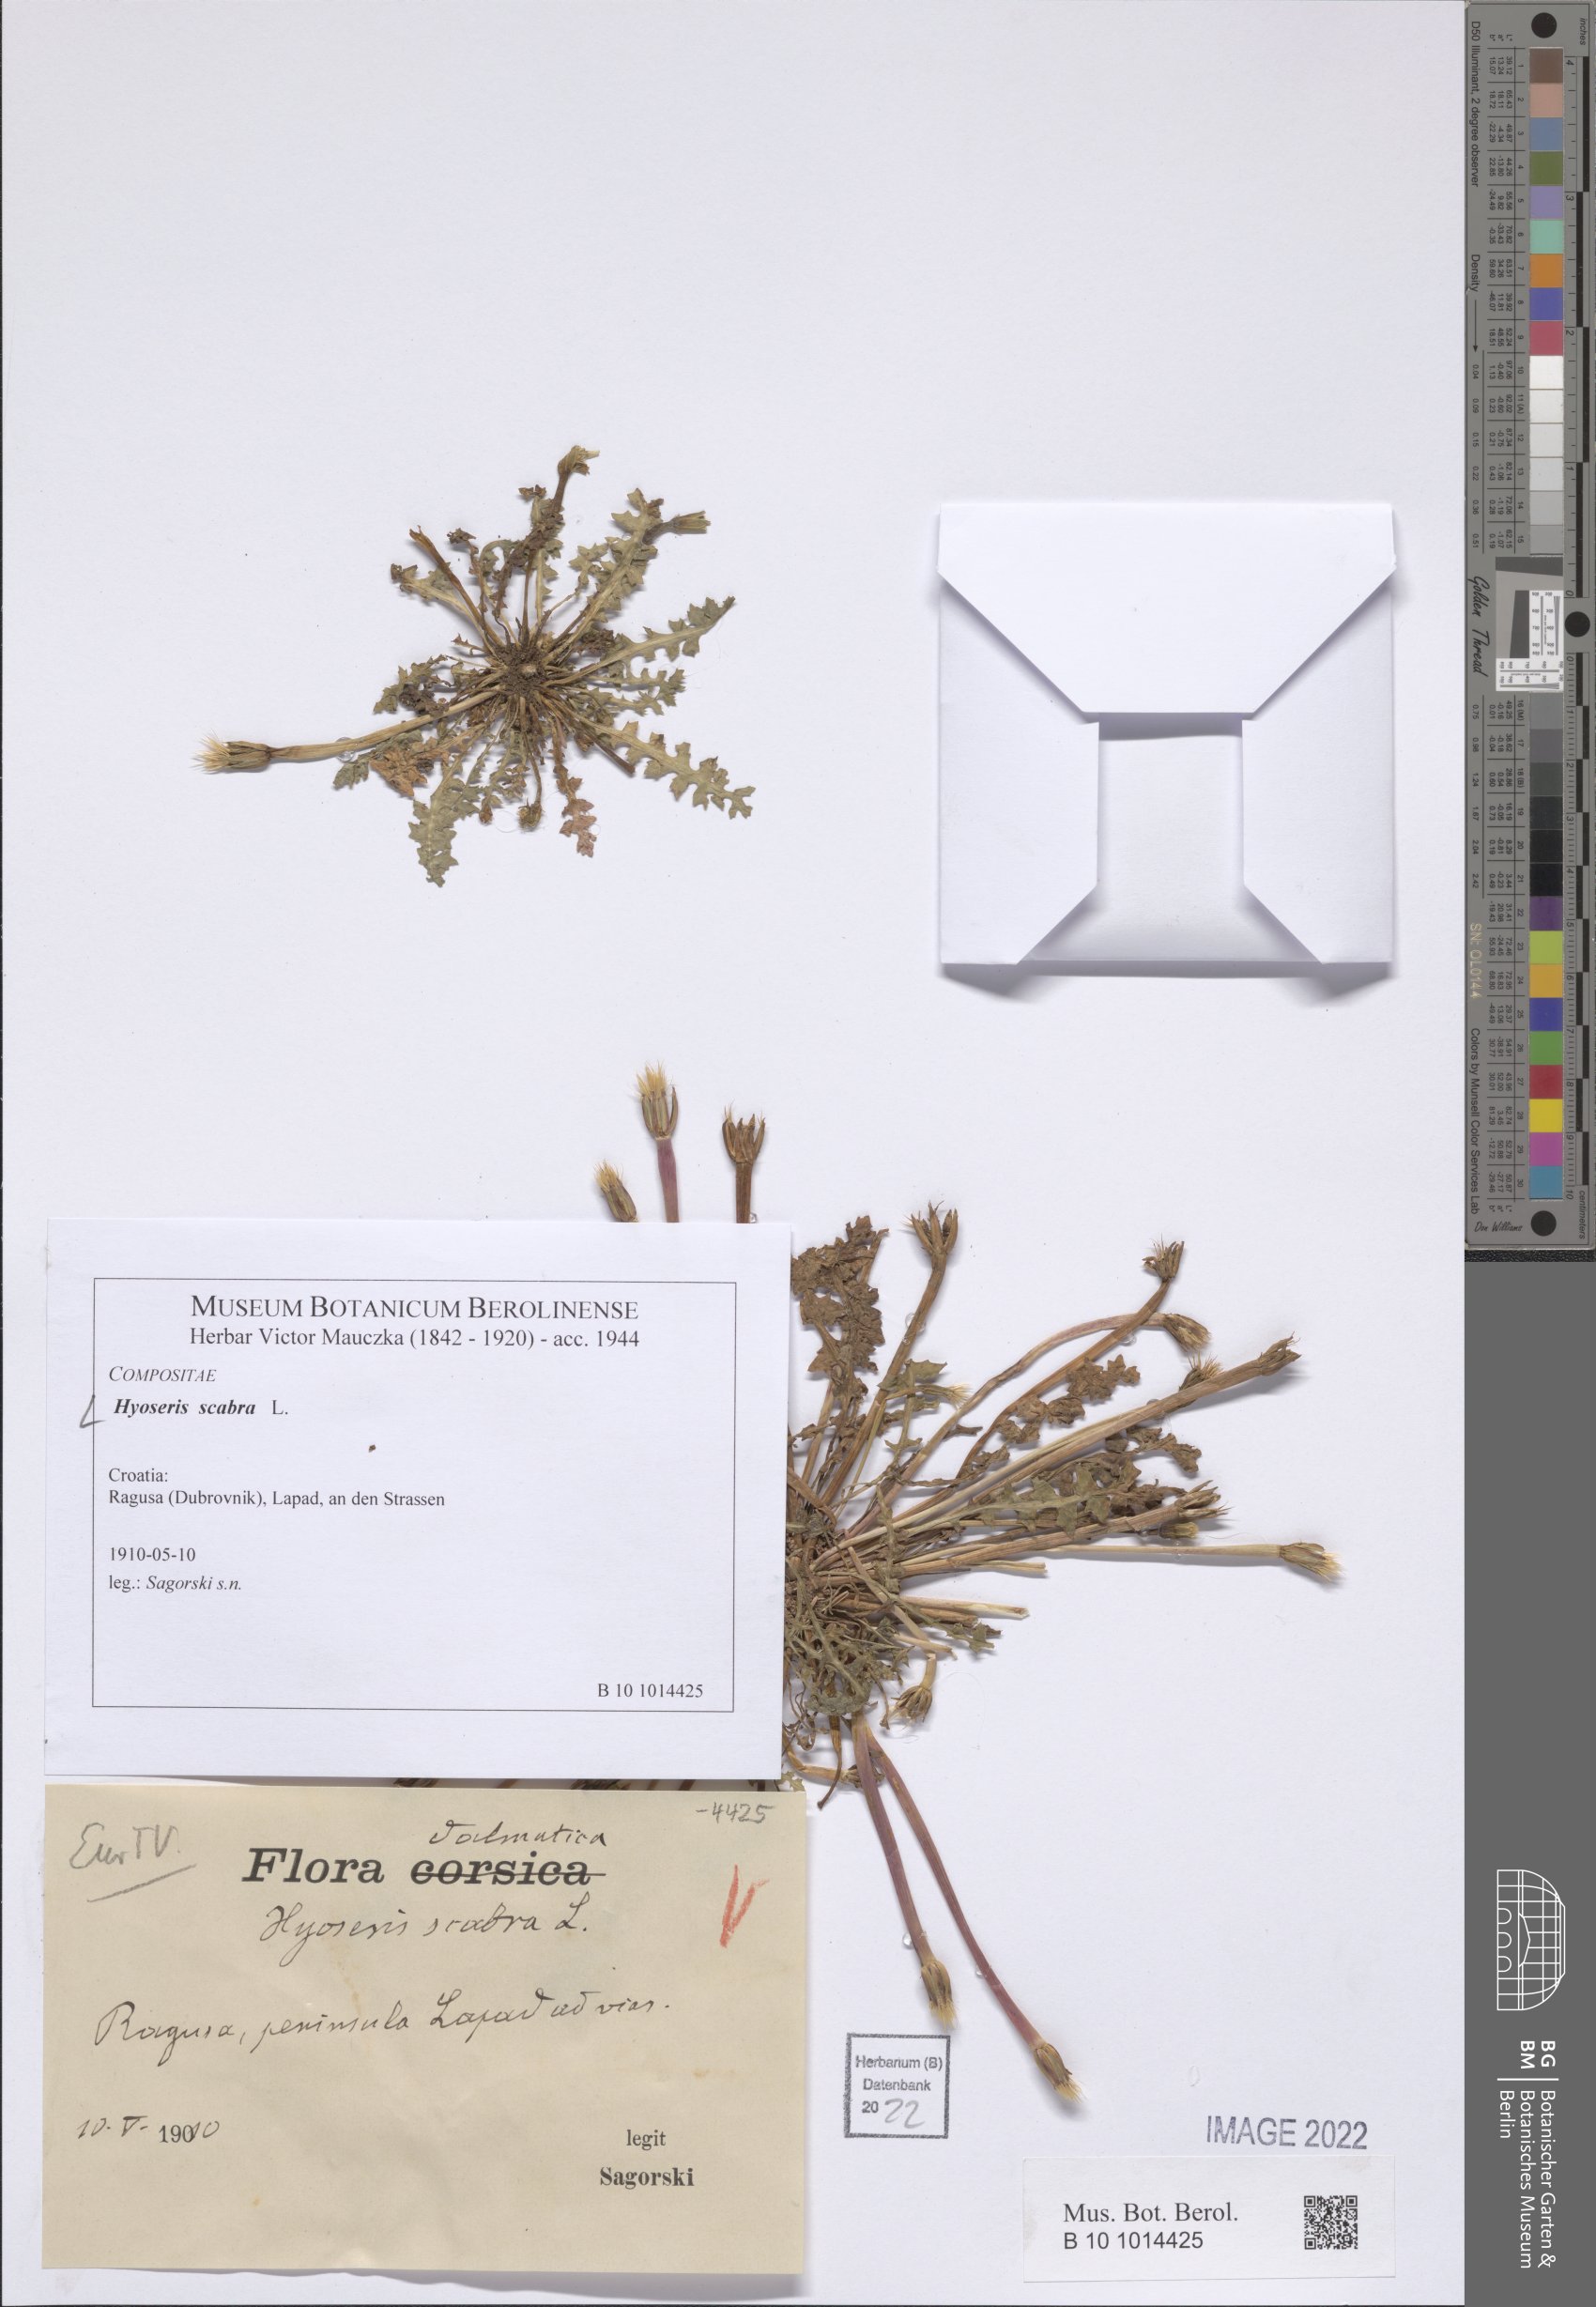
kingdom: Plantae
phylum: Tracheophyta
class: Magnoliopsida
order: Asterales
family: Asteraceae
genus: Hyoseris
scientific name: Hyoseris scabra
